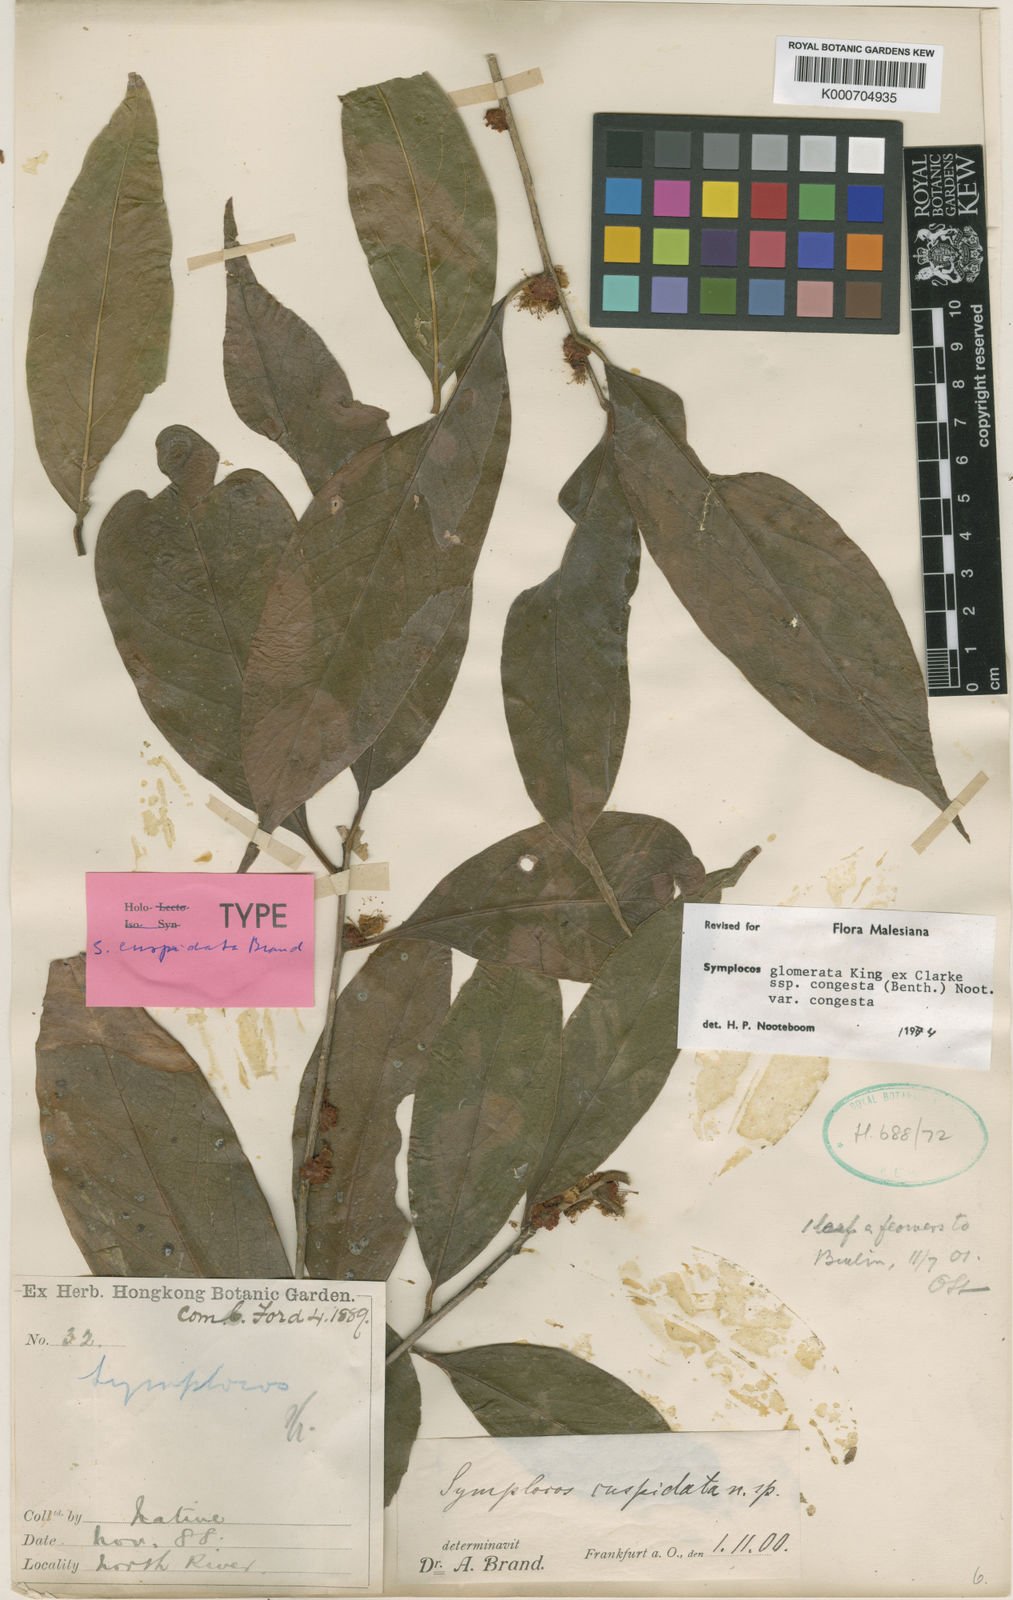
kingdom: Plantae
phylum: Tracheophyta
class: Magnoliopsida
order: Ericales
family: Symplocaceae
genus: Symplocos
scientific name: Symplocos congesta
